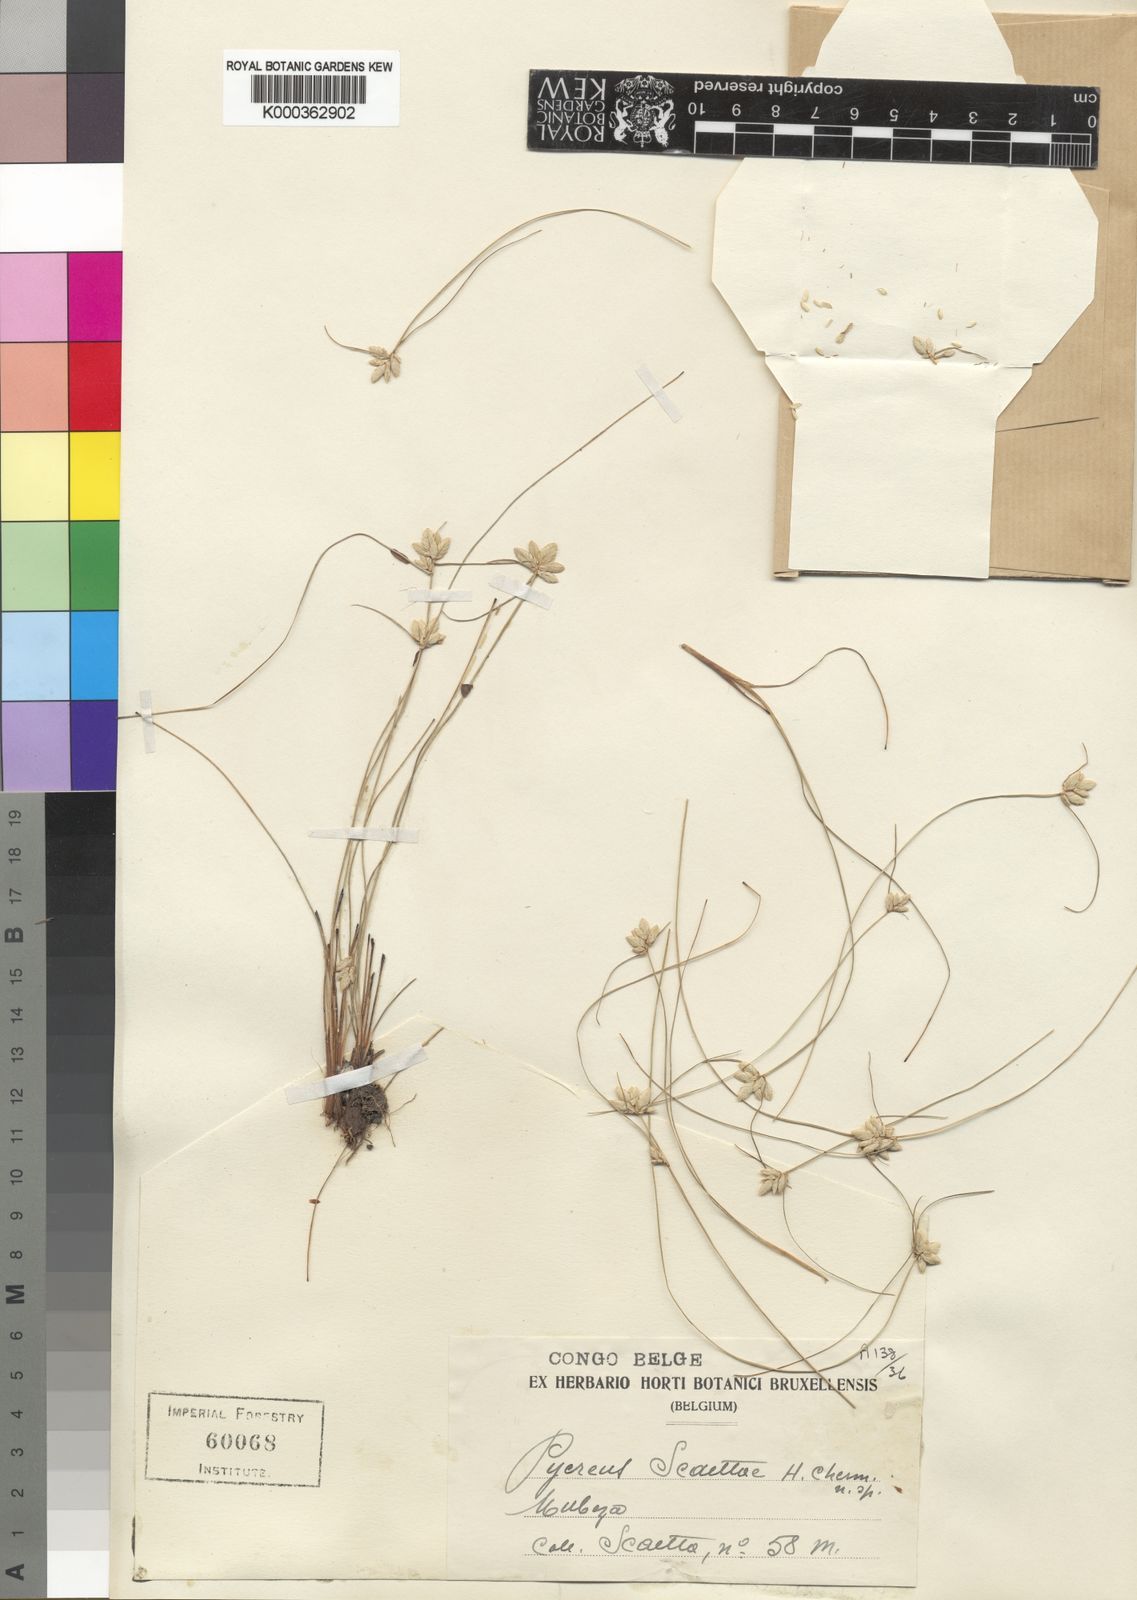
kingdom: Plantae
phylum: Tracheophyta
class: Liliopsida
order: Poales
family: Cyperaceae
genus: Cyperus
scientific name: Cyperus scaettae
